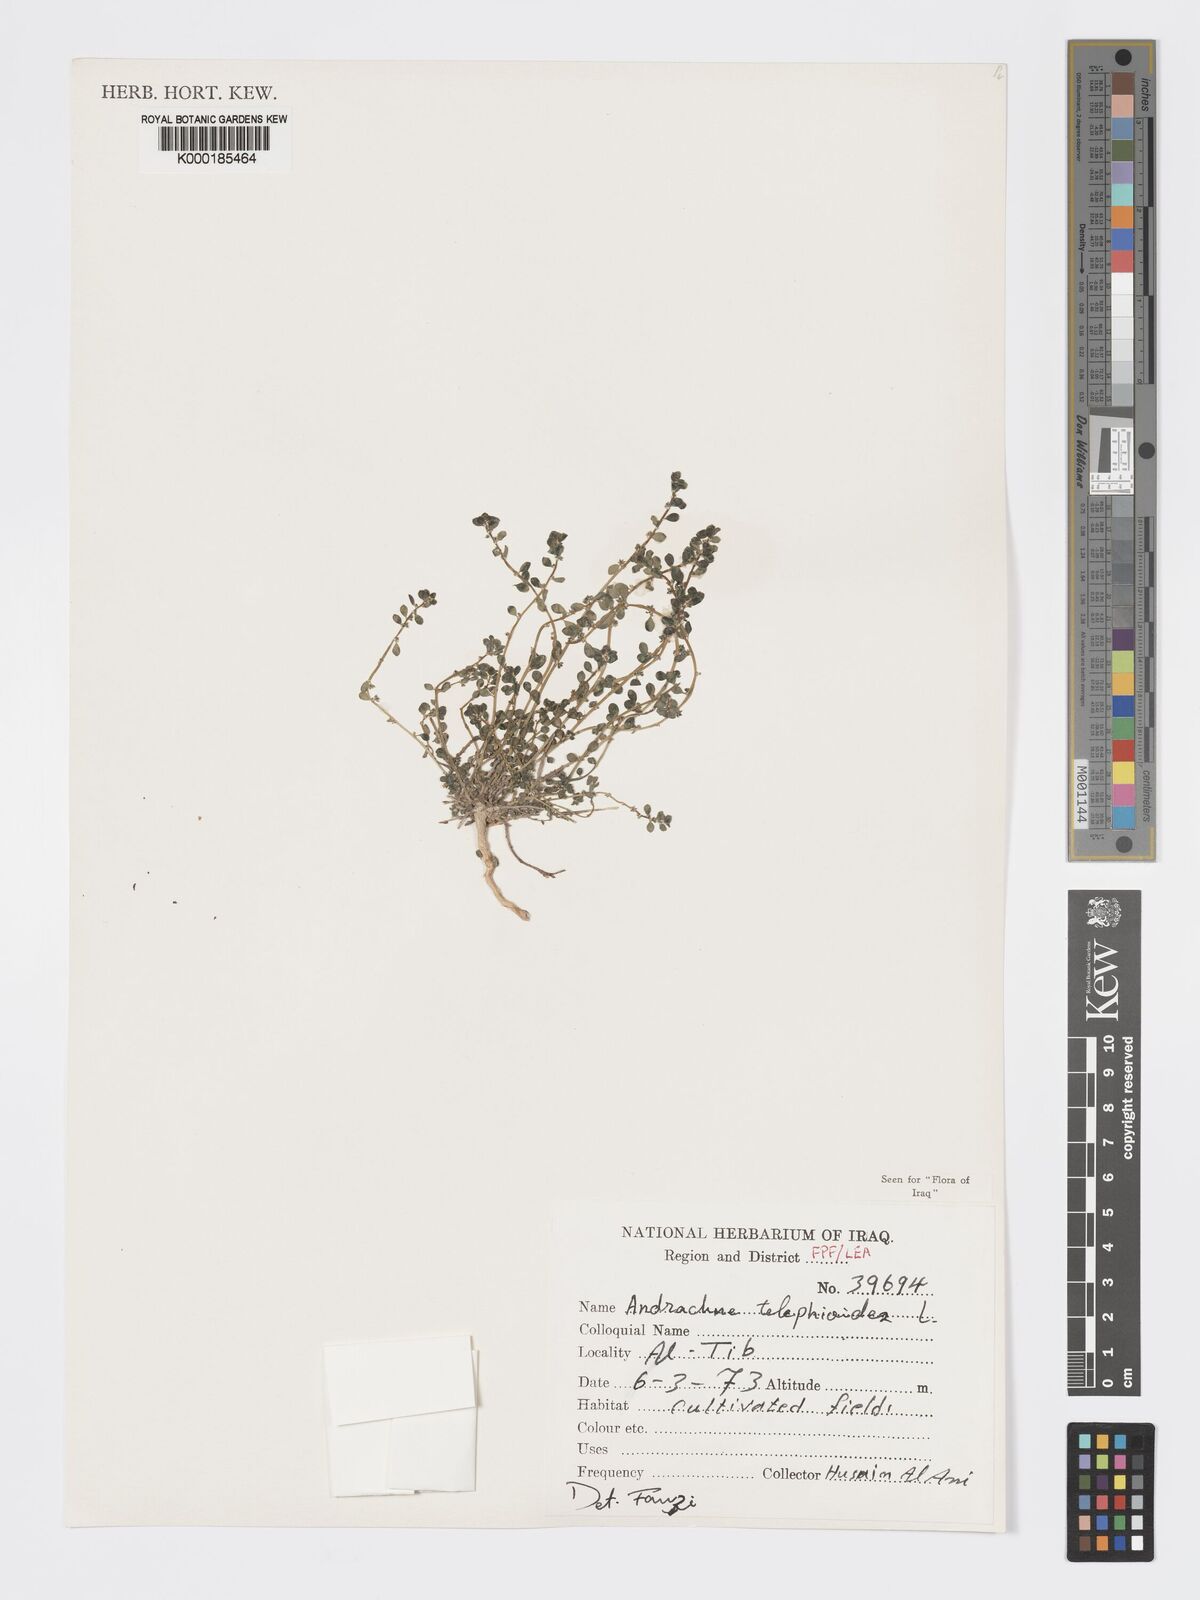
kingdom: Plantae
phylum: Tracheophyta
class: Magnoliopsida
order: Malpighiales
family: Phyllanthaceae
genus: Andrachne
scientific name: Andrachne telephioides
